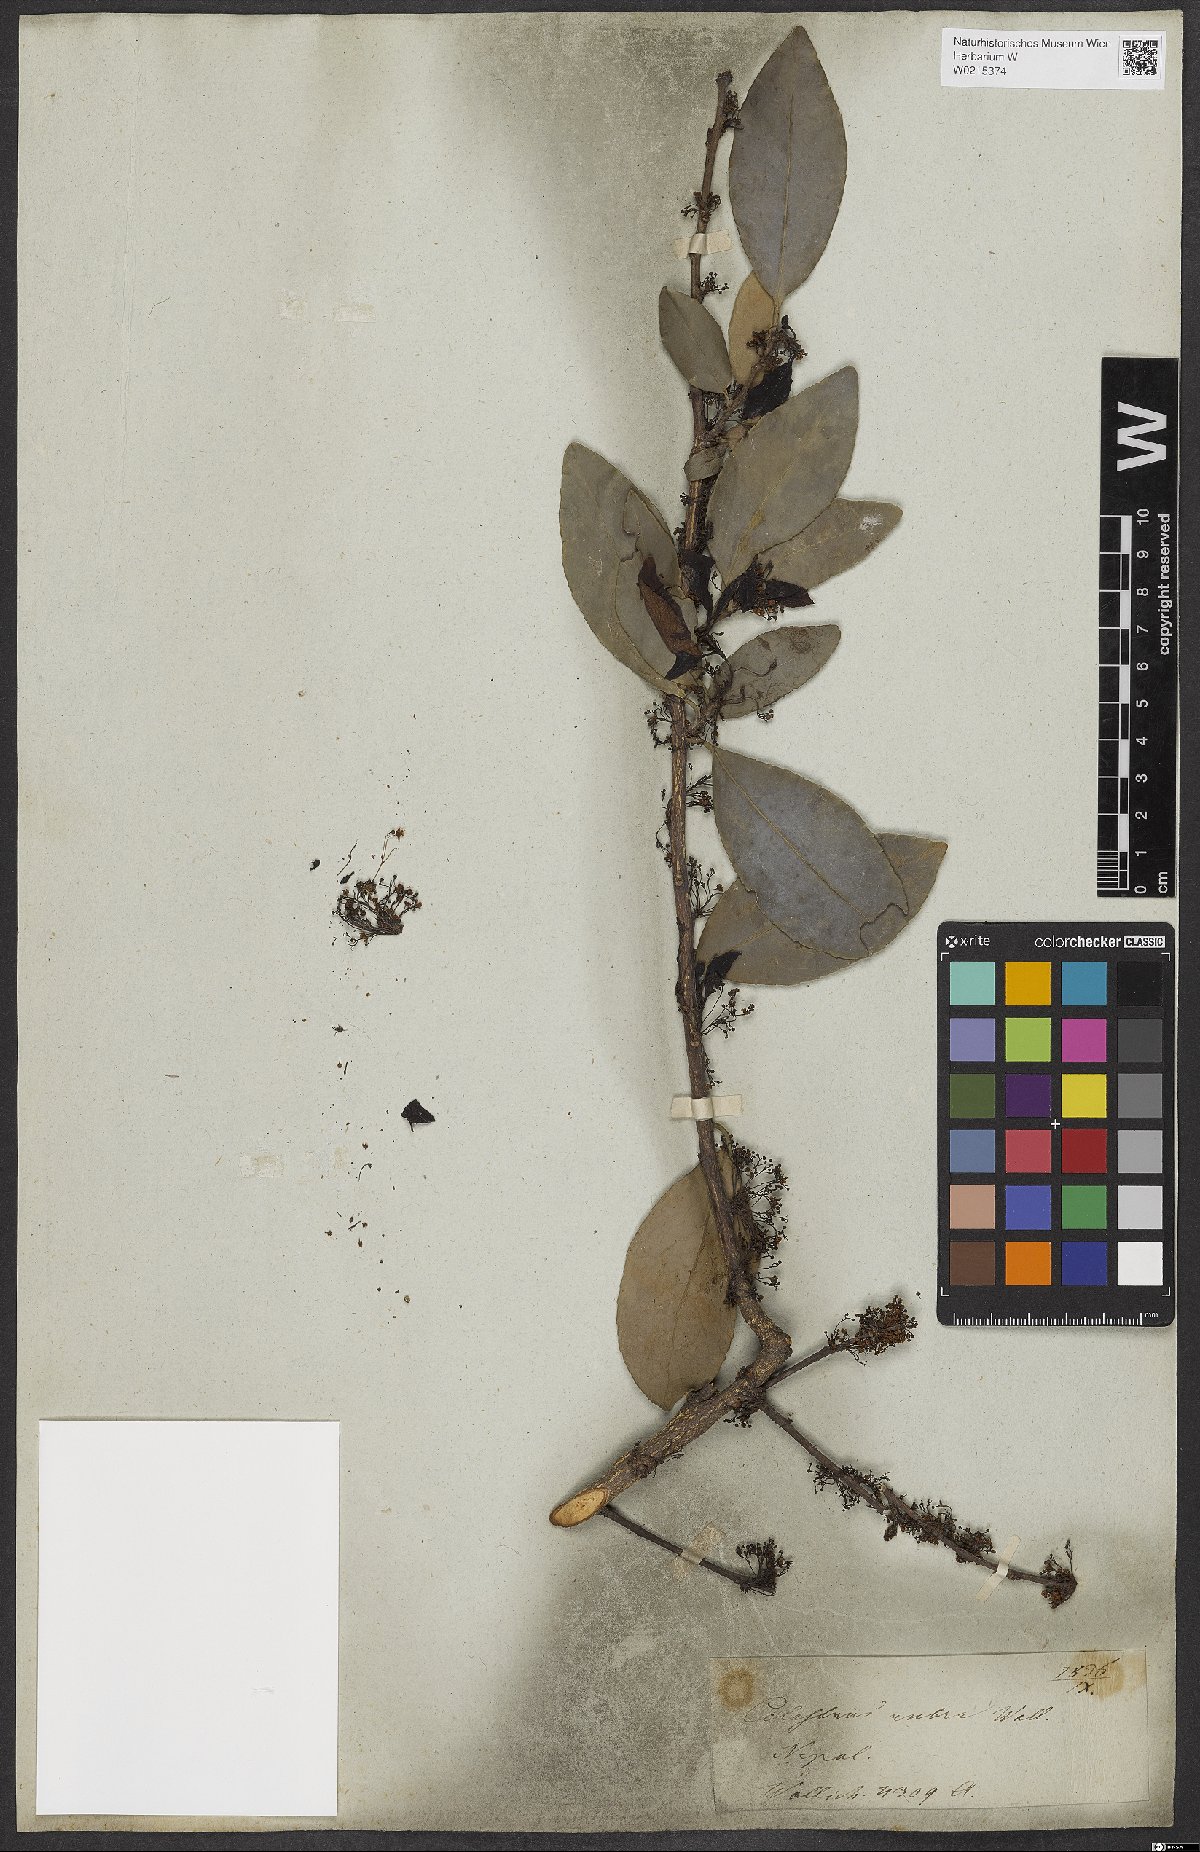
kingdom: Plantae
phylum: Tracheophyta
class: Magnoliopsida
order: Celastrales
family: Celastraceae
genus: Gymnosporia
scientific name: Gymnosporia rubra
